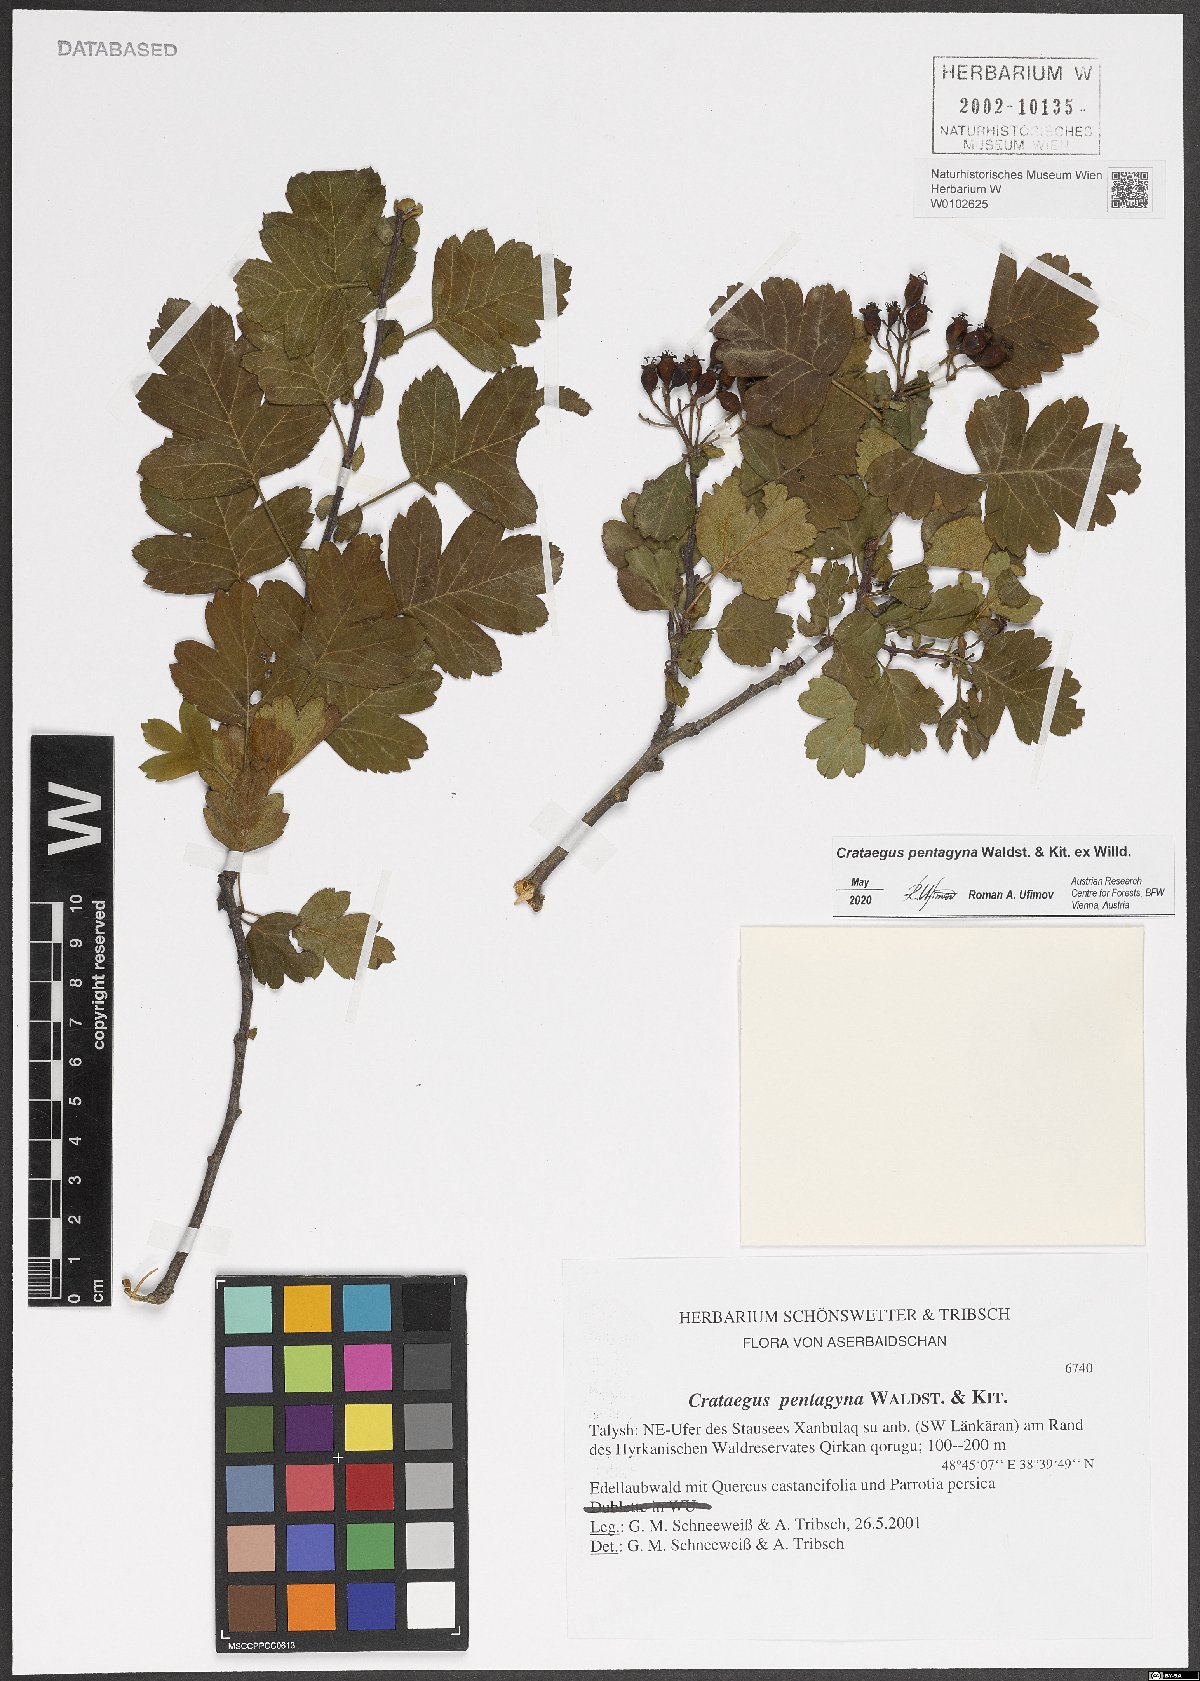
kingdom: Plantae
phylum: Tracheophyta
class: Magnoliopsida
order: Rosales
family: Rosaceae
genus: Crataegus
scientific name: Crataegus pentagyna
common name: Small-flowered black hawthorn
